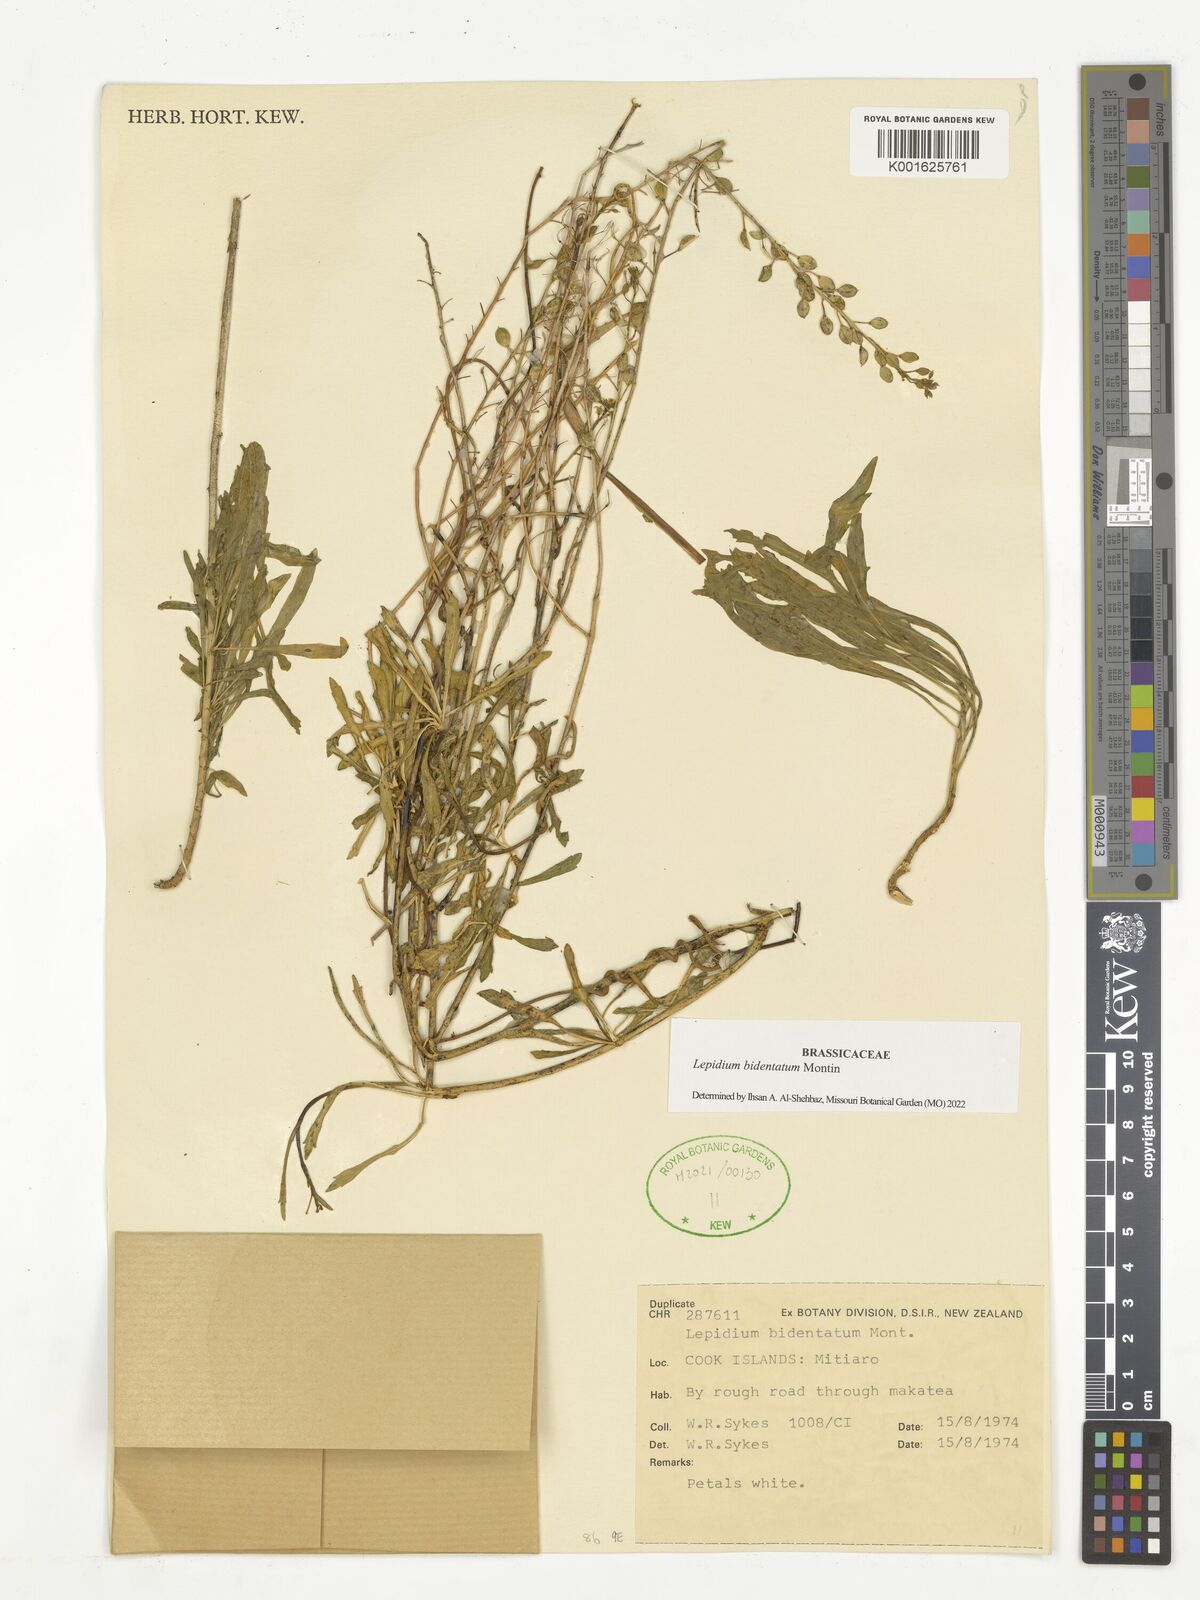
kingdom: Plantae
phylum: Tracheophyta
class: Magnoliopsida
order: Brassicales
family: Brassicaceae
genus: Lepidium
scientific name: Lepidium bidentatum
